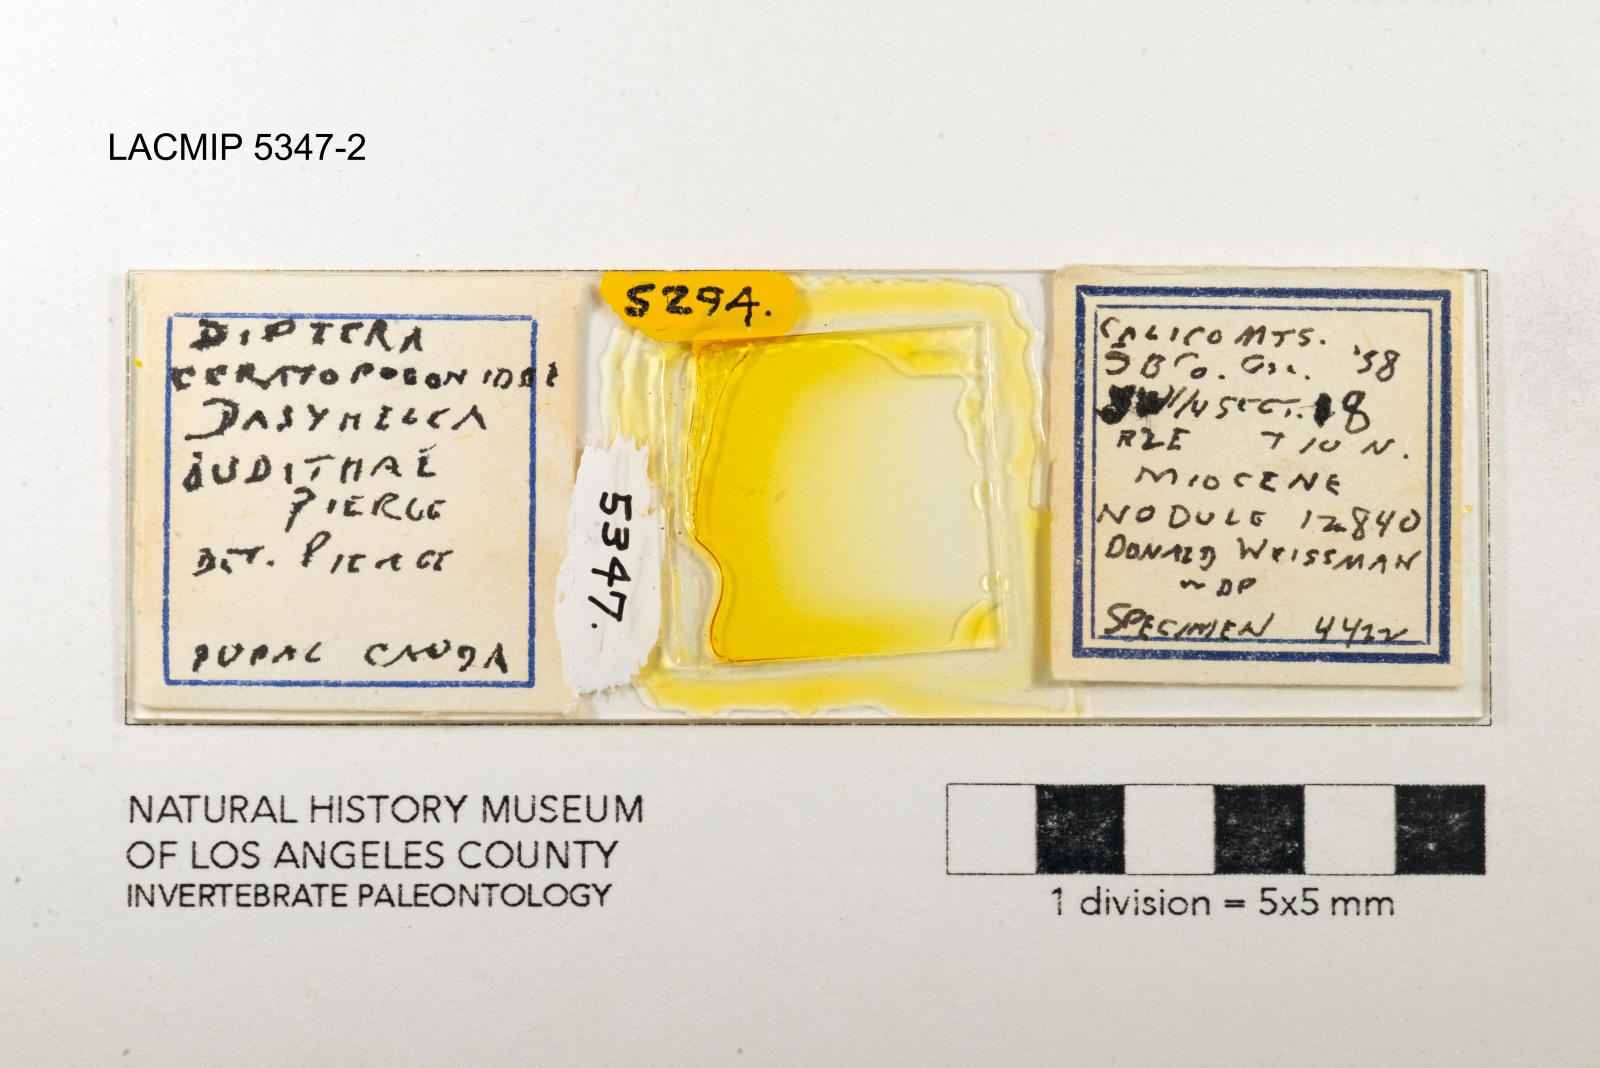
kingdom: Animalia
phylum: Arthropoda
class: Insecta
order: Diptera
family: Ceratopogonidae
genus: Dasyhelea
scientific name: Dasyhelea judithae
